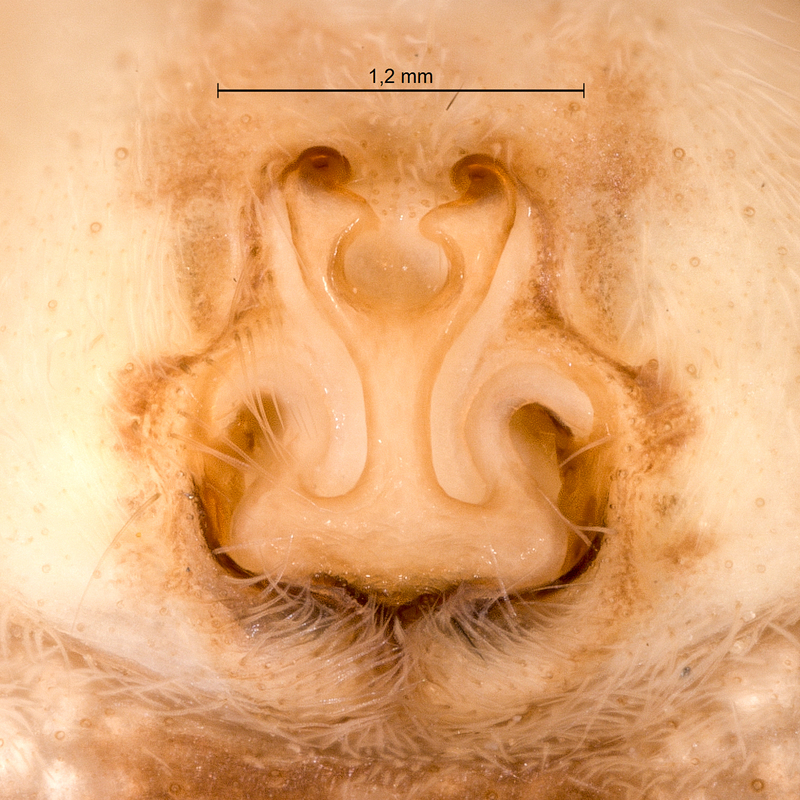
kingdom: Animalia
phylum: Arthropoda
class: Arachnida
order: Araneae
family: Pisauridae
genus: Pisaura
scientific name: Pisaura mirabilis
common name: Tent spider
